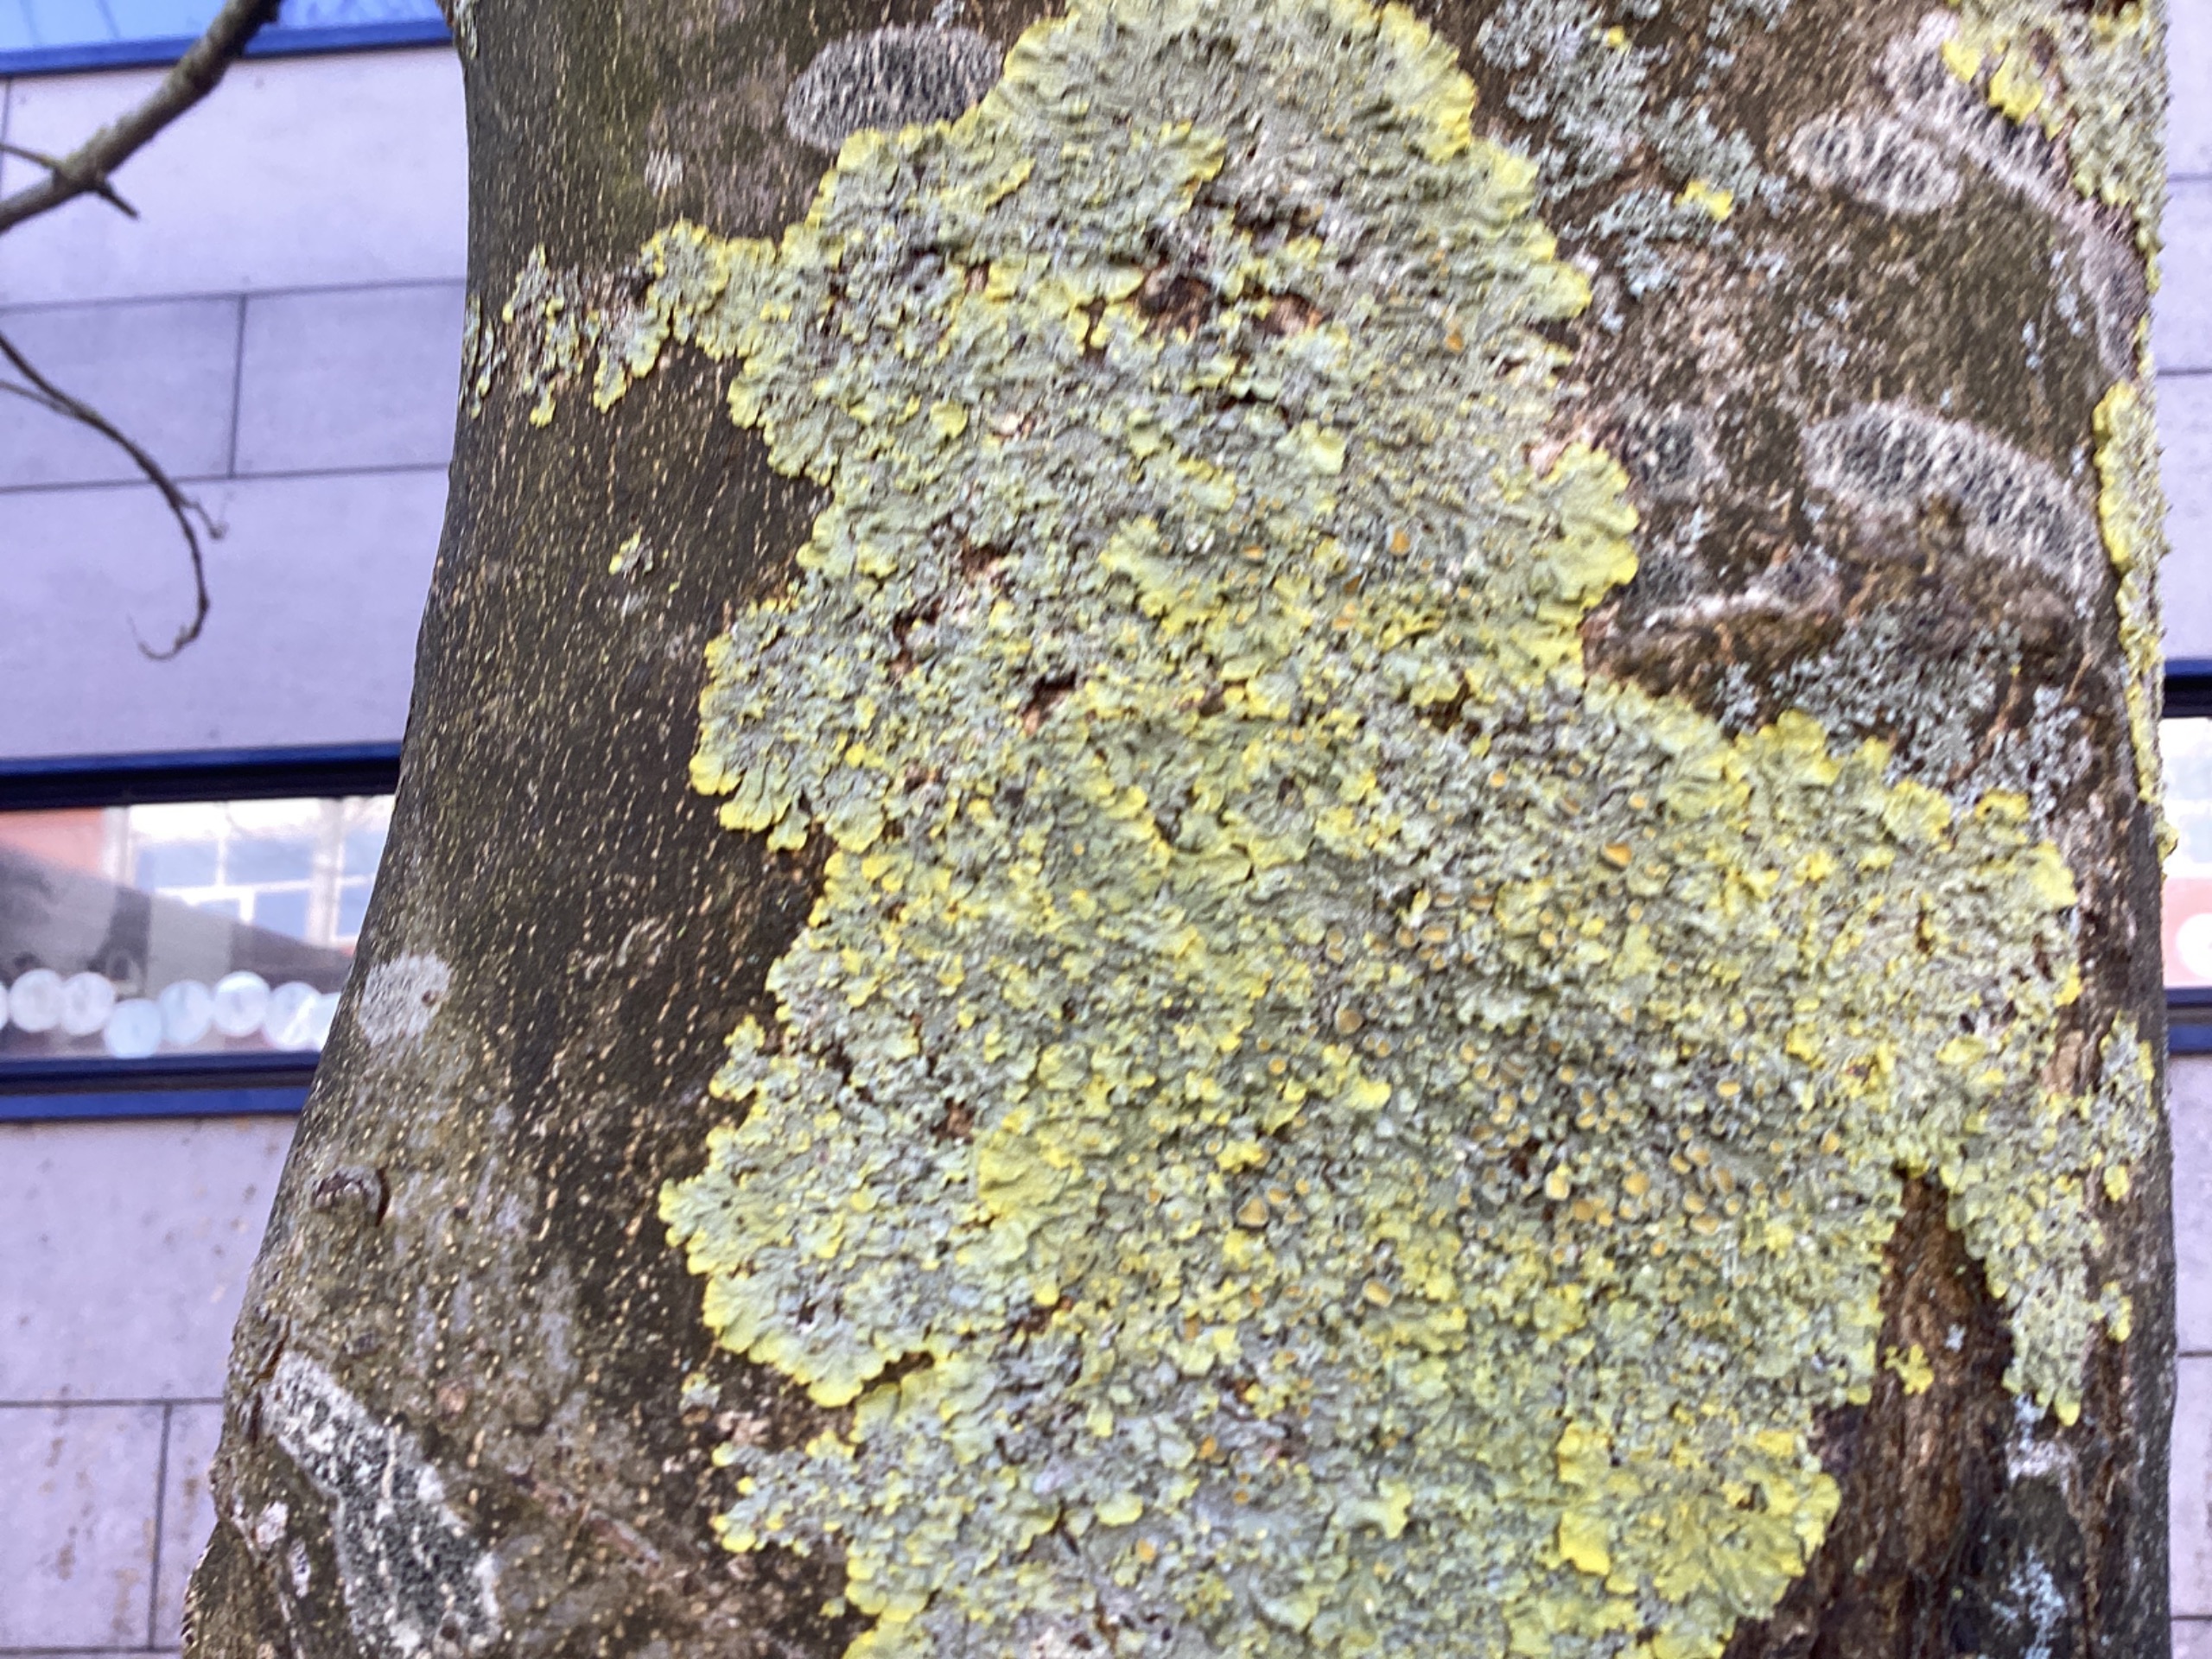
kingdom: Fungi
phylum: Ascomycota
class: Lecanoromycetes
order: Teloschistales
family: Teloschistaceae
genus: Xanthoria
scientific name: Xanthoria parietina
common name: Almindelig væggelav
